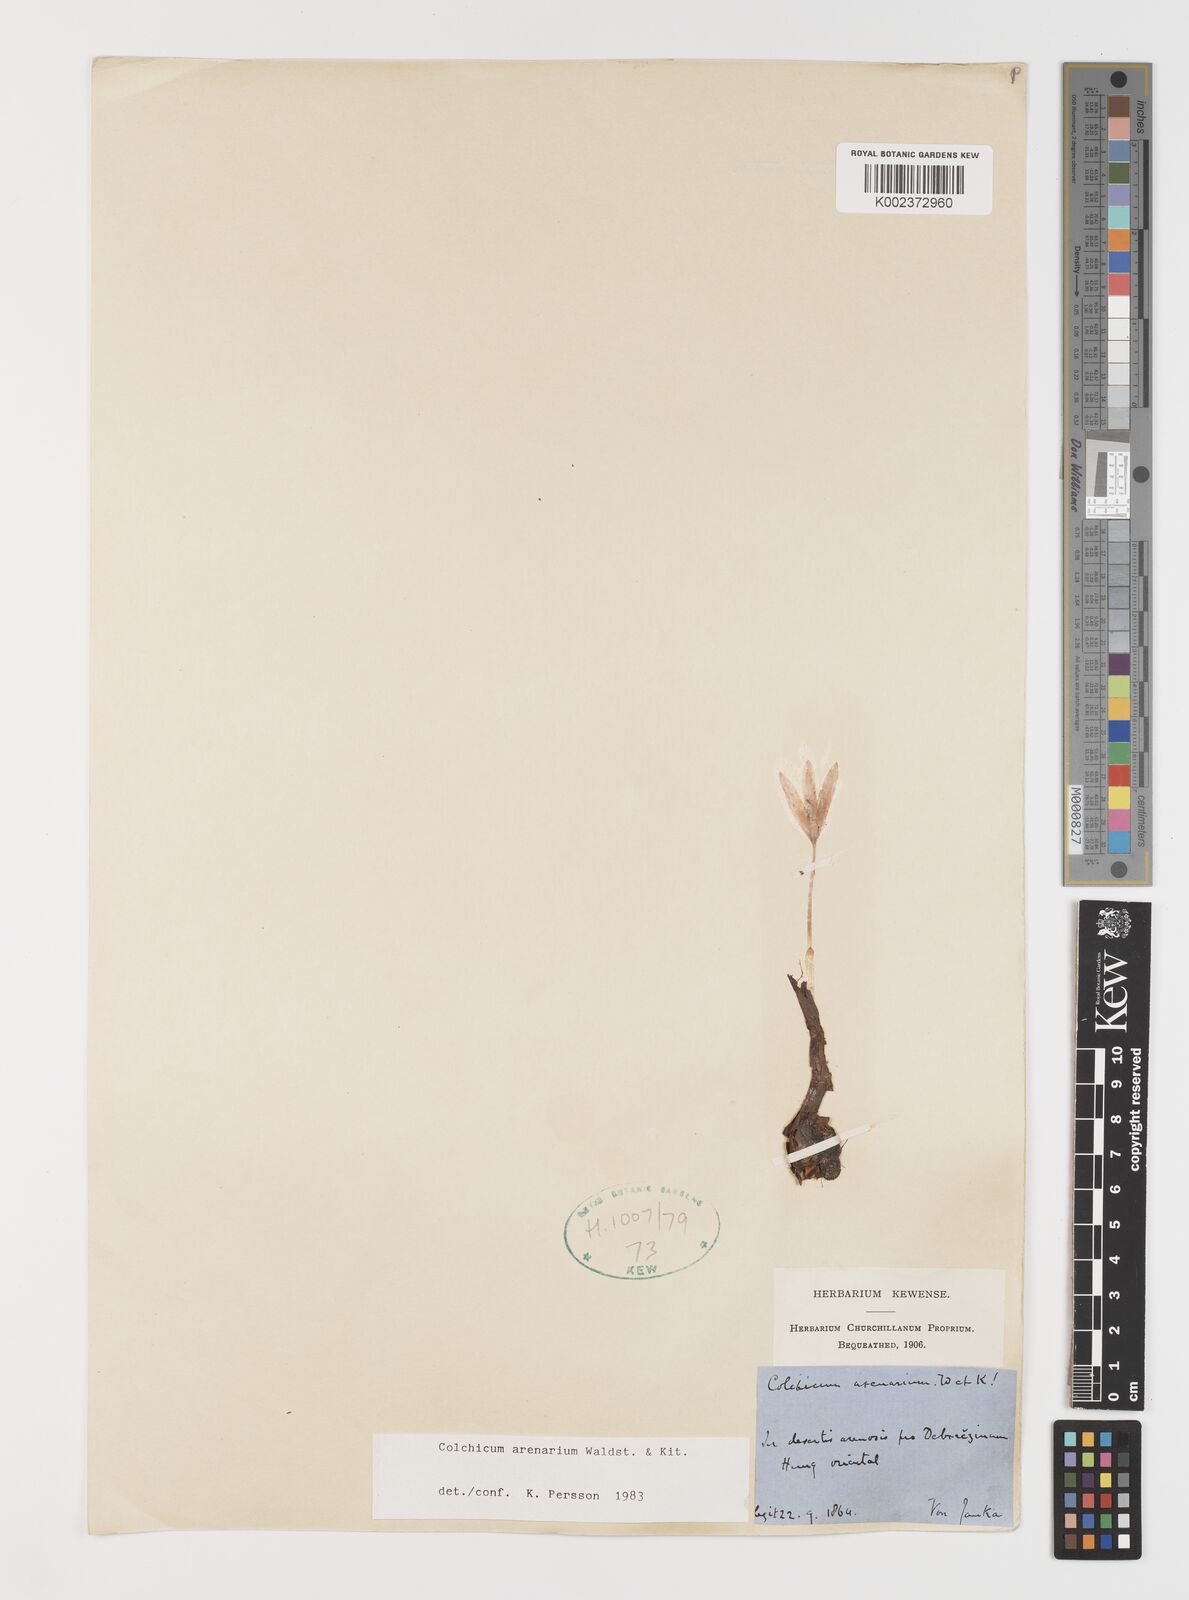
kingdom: Plantae
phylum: Tracheophyta
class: Liliopsida
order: Liliales
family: Colchicaceae
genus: Colchicum
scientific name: Colchicum arenarium
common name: Sand saffron
